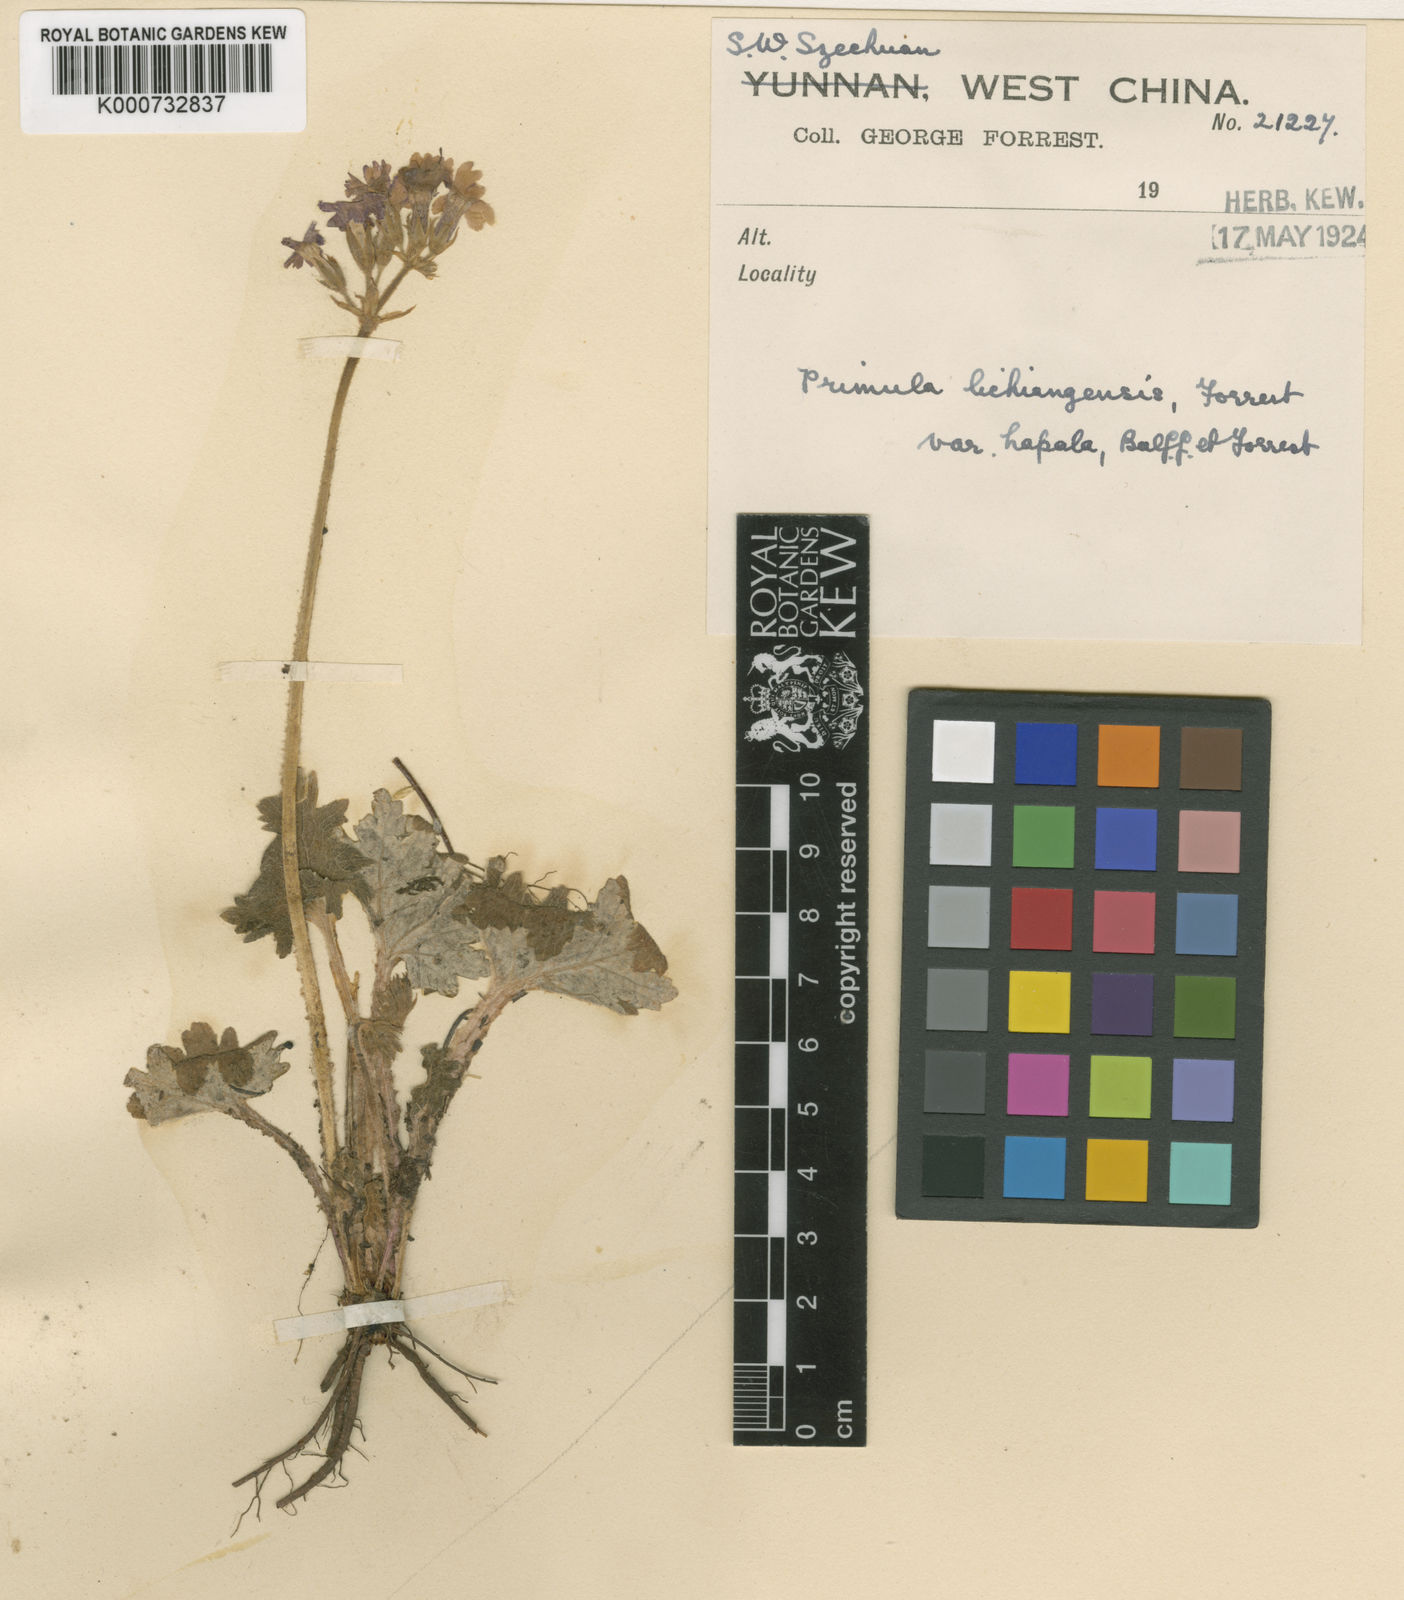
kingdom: Plantae
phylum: Tracheophyta
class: Magnoliopsida
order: Ericales
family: Primulaceae
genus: Primula
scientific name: Primula
